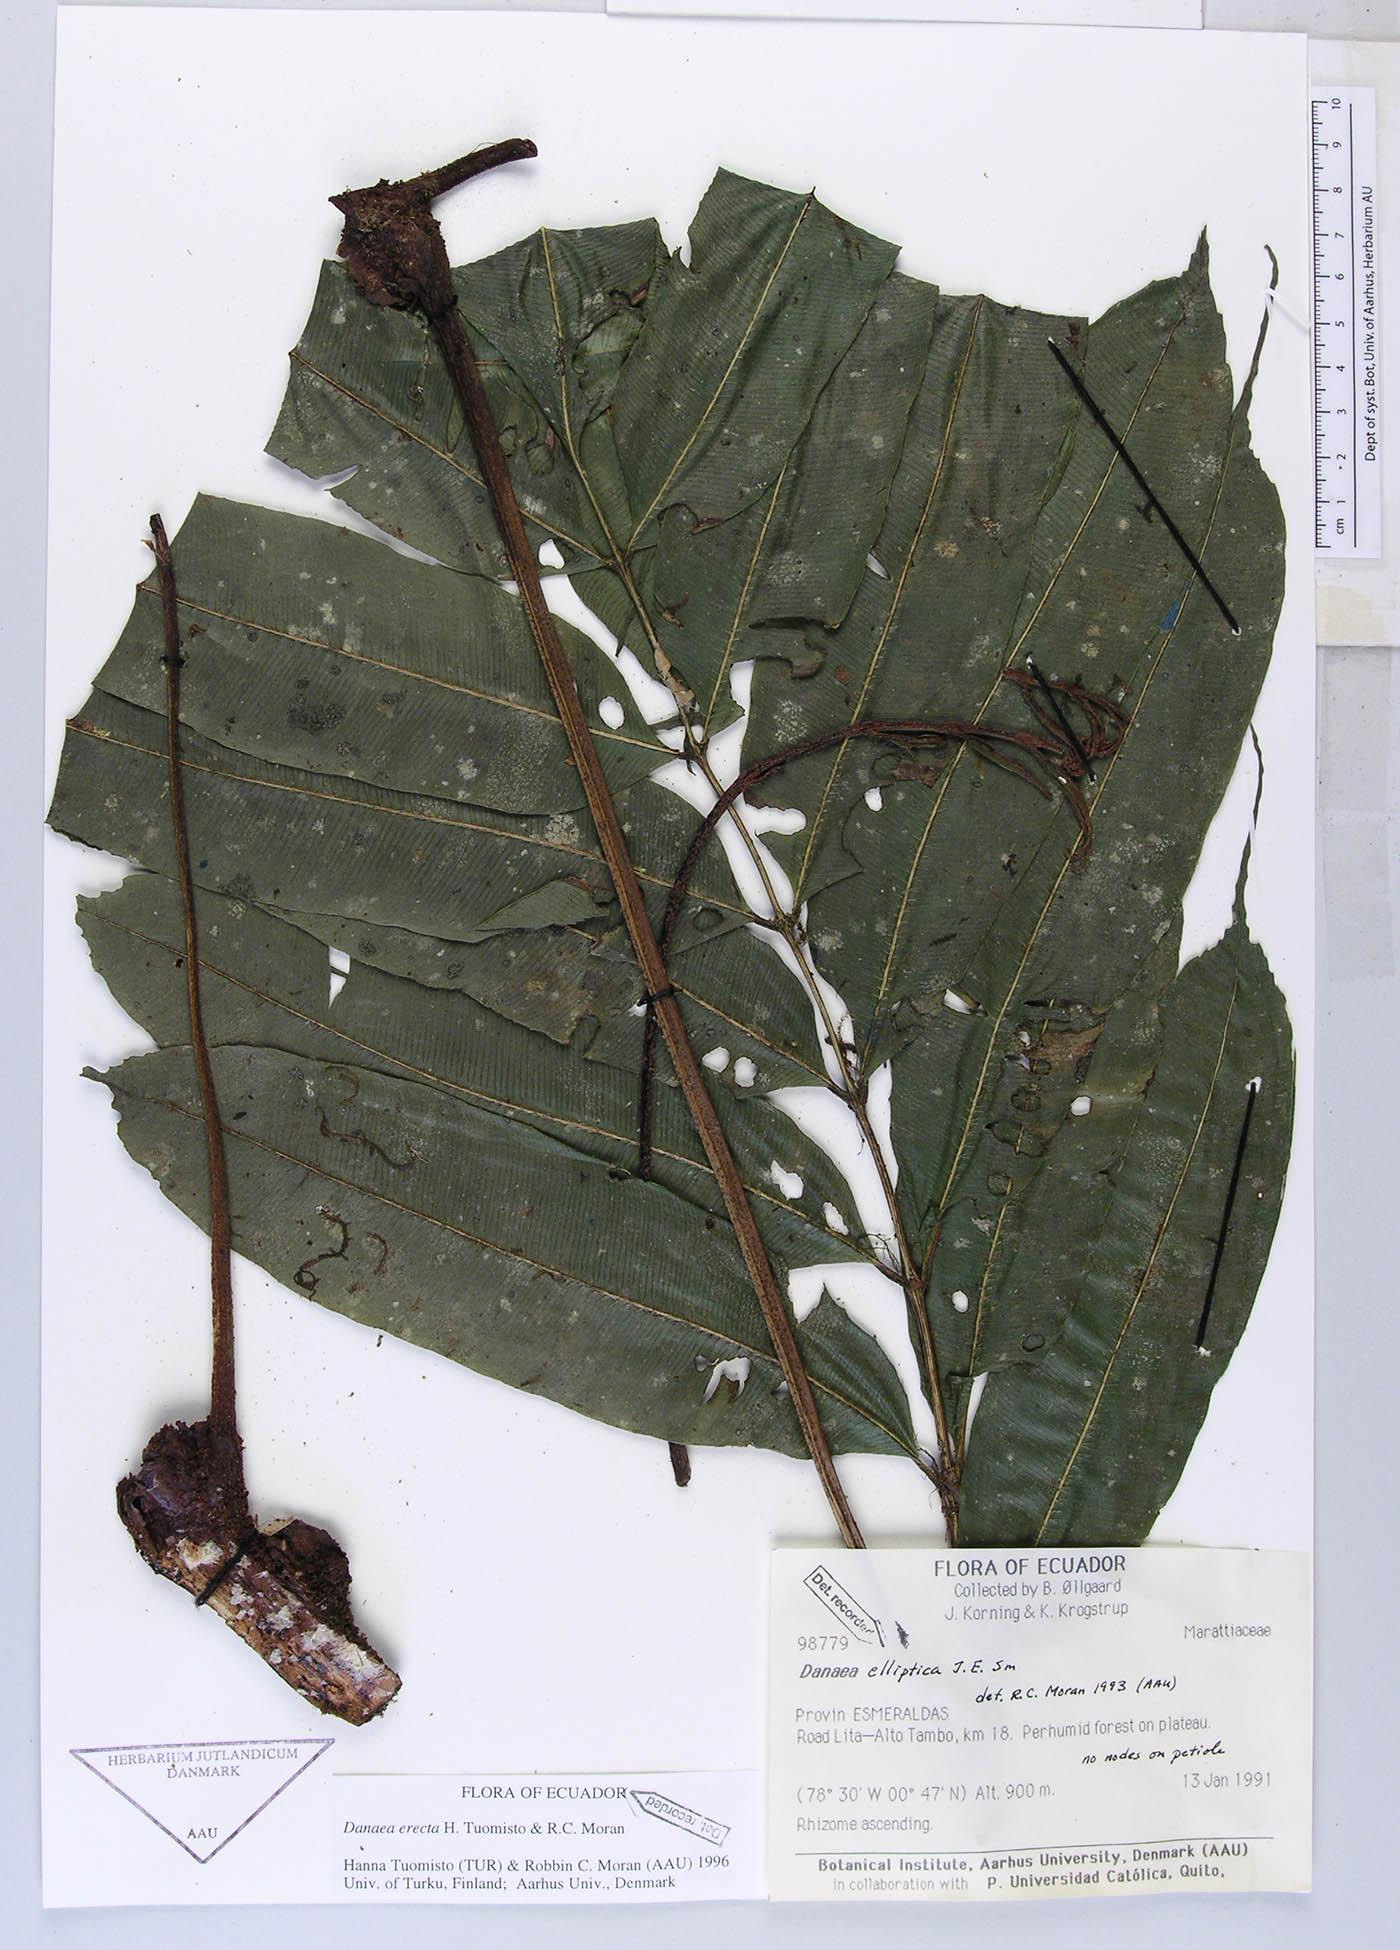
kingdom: Plantae
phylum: Tracheophyta
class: Polypodiopsida
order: Marattiales
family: Marattiaceae
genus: Danaea
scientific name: Danaea nodosa
